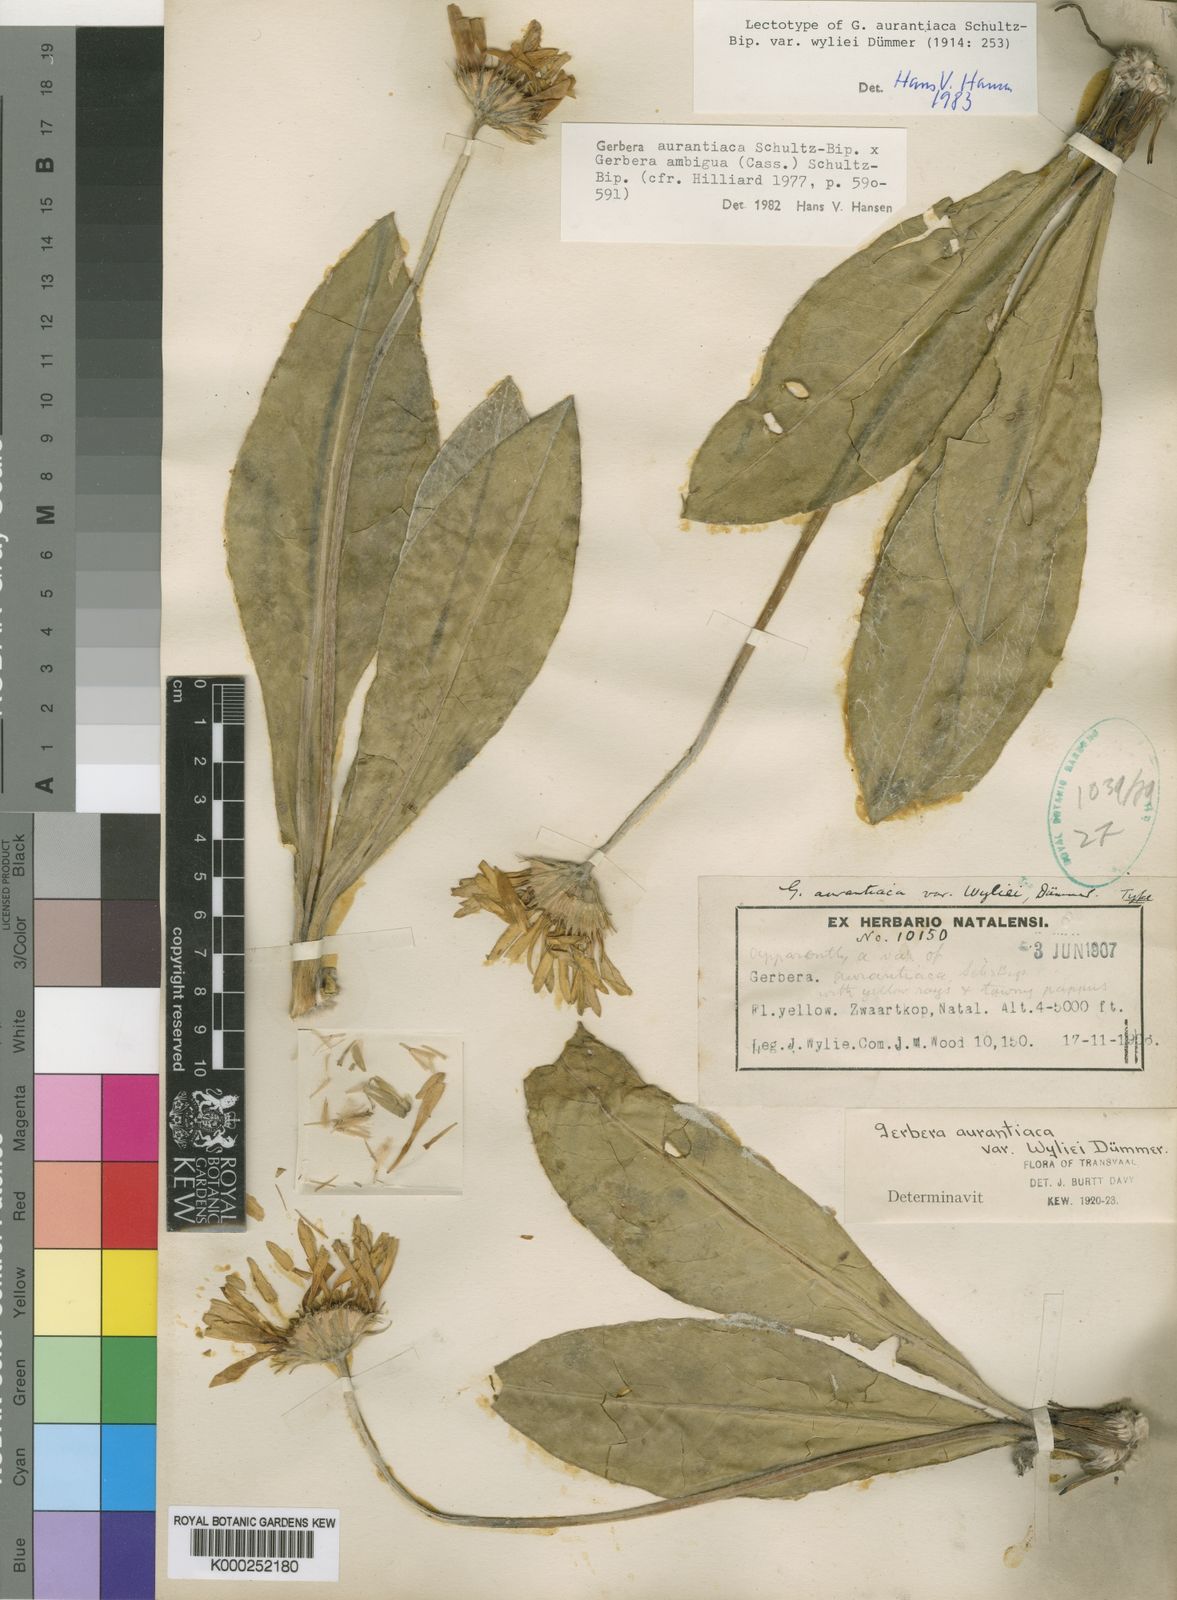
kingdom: Plantae
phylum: Tracheophyta
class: Magnoliopsida
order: Asterales
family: Asteraceae
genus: Gerbera
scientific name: Gerbera aurantiaca
